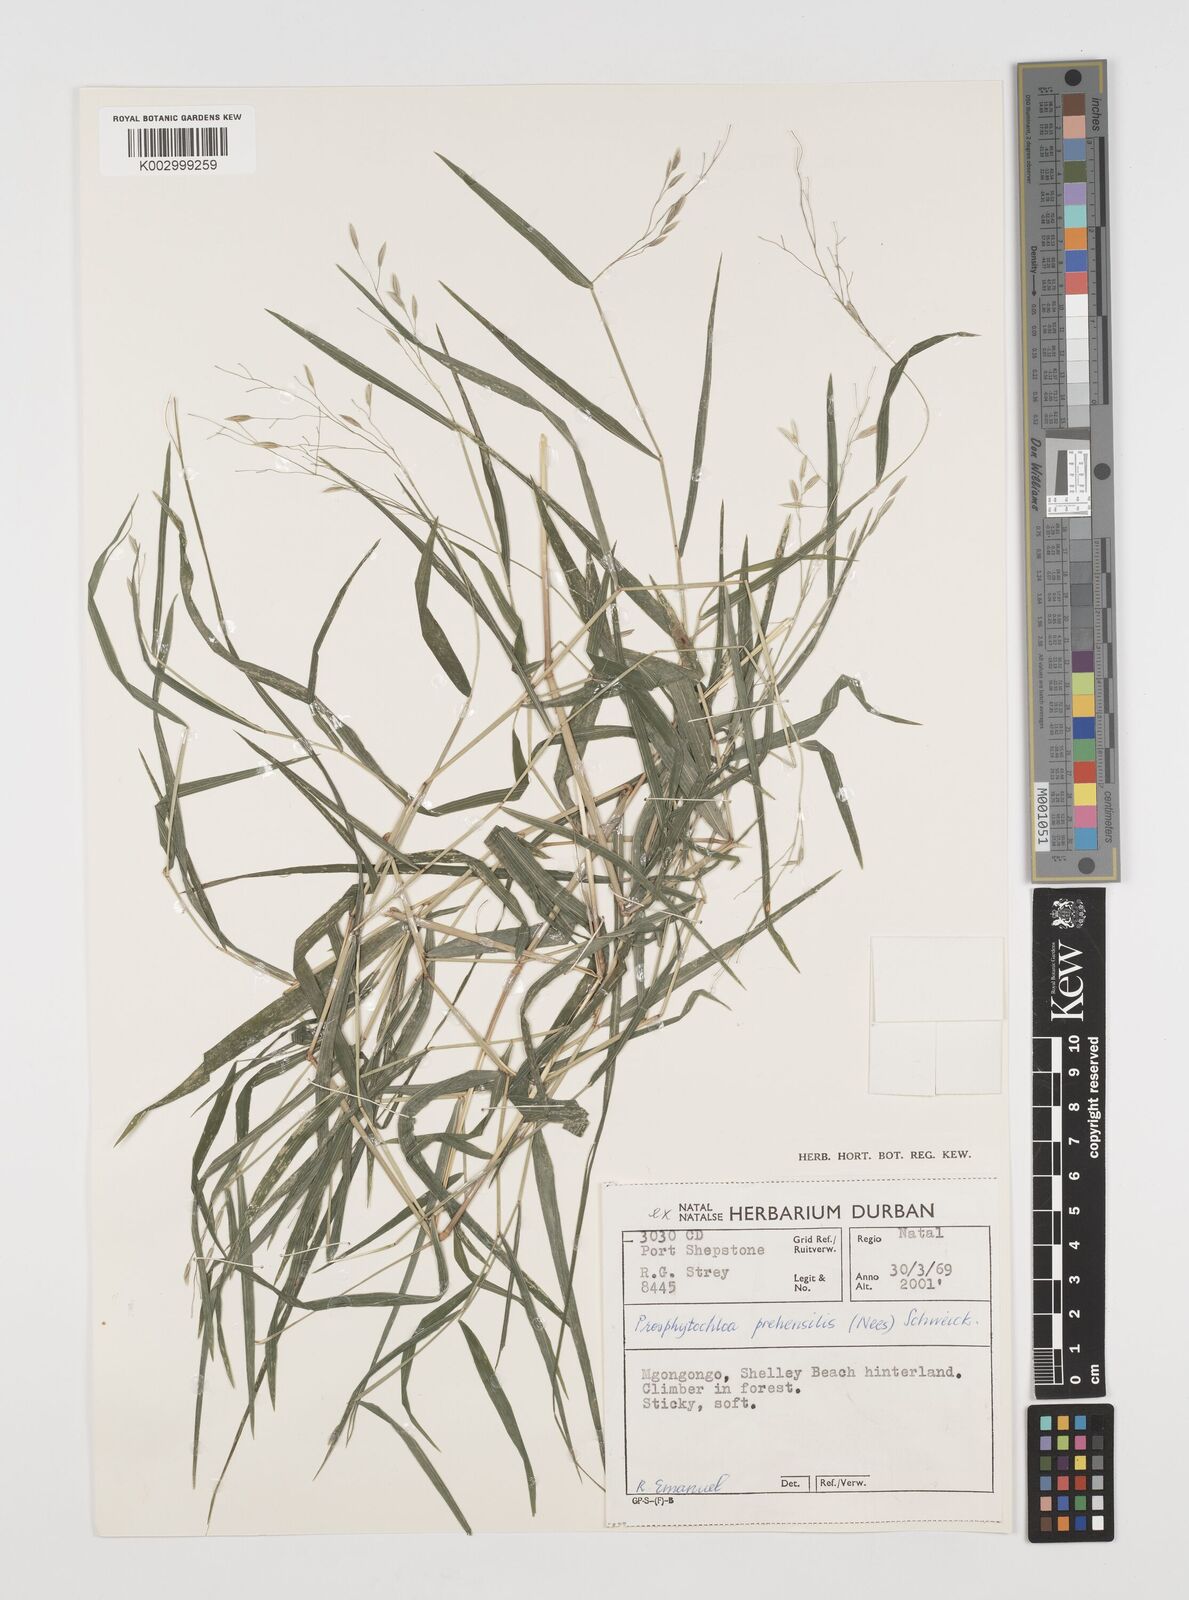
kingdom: Plantae
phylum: Tracheophyta
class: Liliopsida
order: Poales
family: Poaceae
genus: Prosphytochloa
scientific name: Prosphytochloa prehensilis
